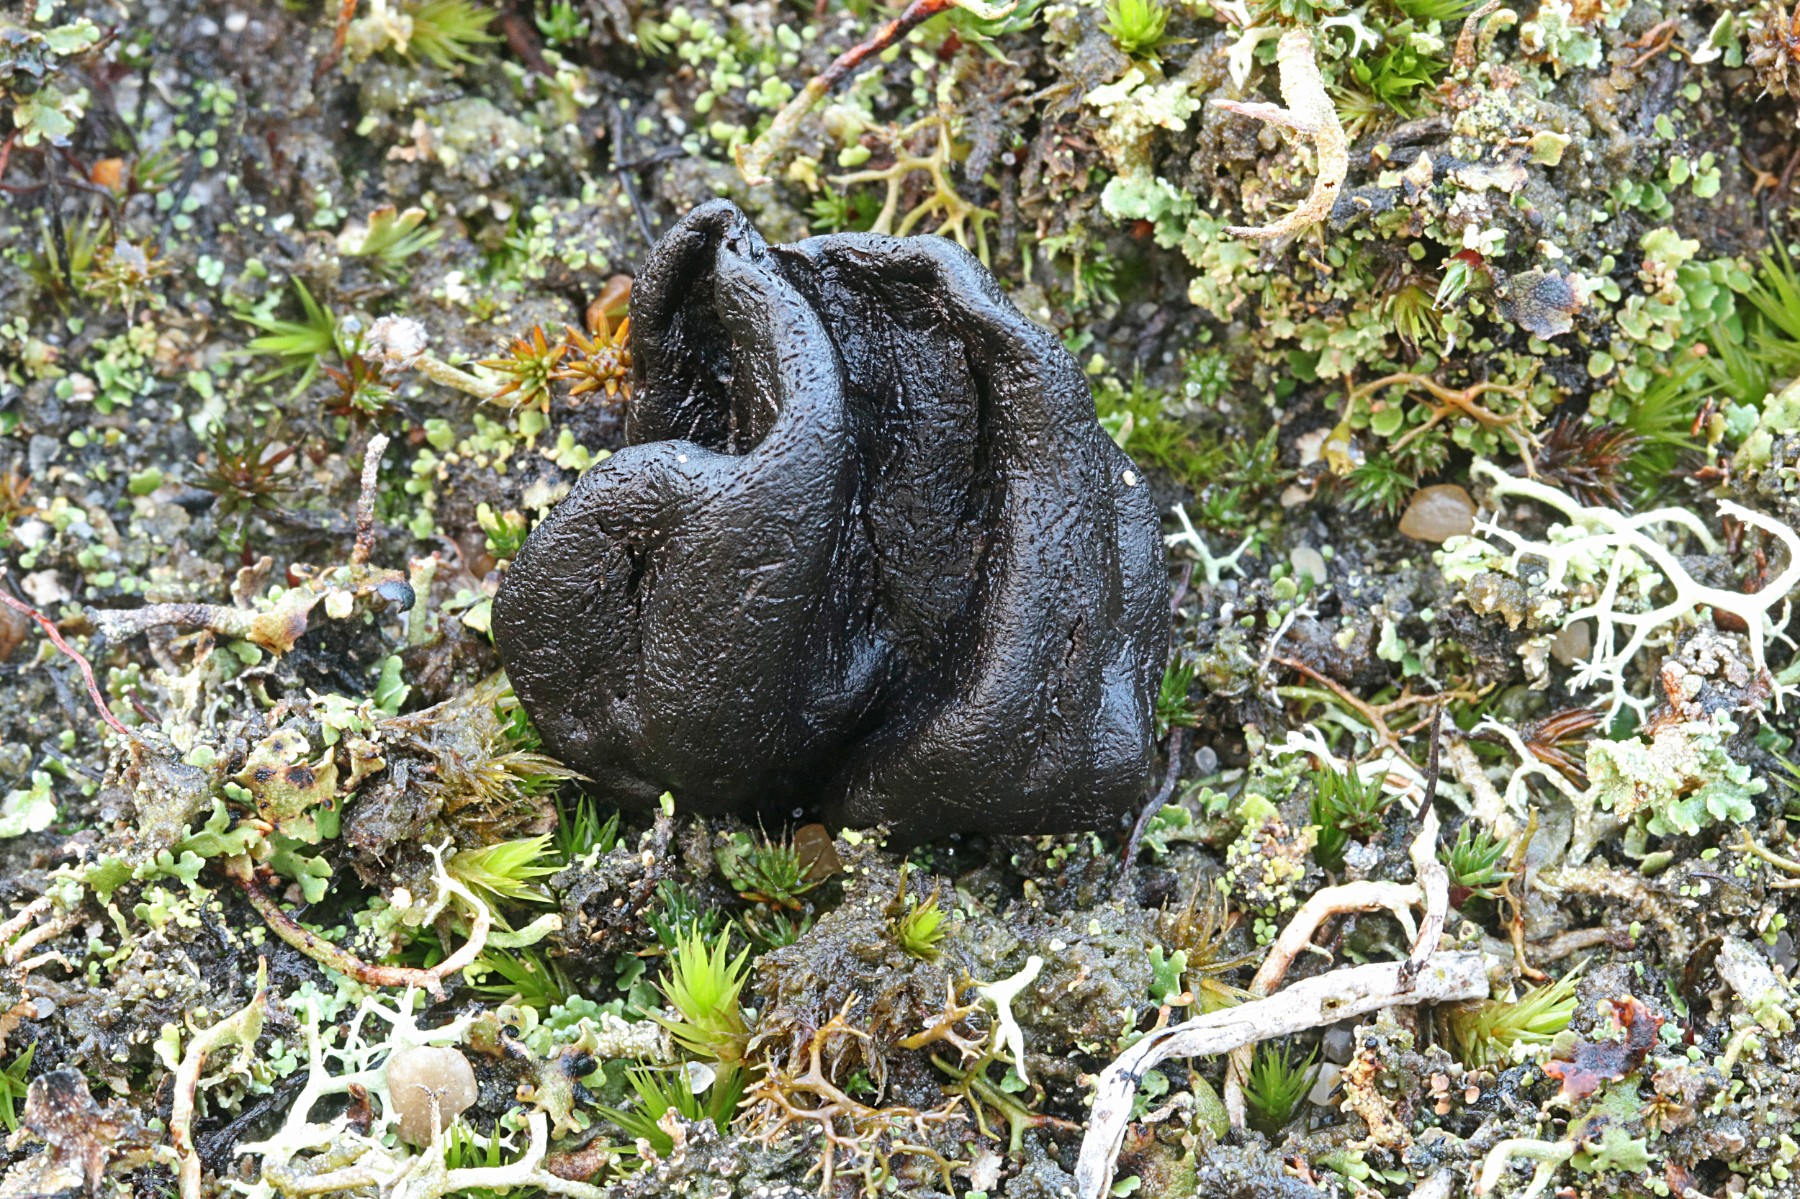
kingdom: Fungi
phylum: Ascomycota
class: Geoglossomycetes
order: Geoglossales
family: Geoglossaceae
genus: Sabuloglossum
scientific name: Sabuloglossum arenarium
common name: klit-jordtunge
